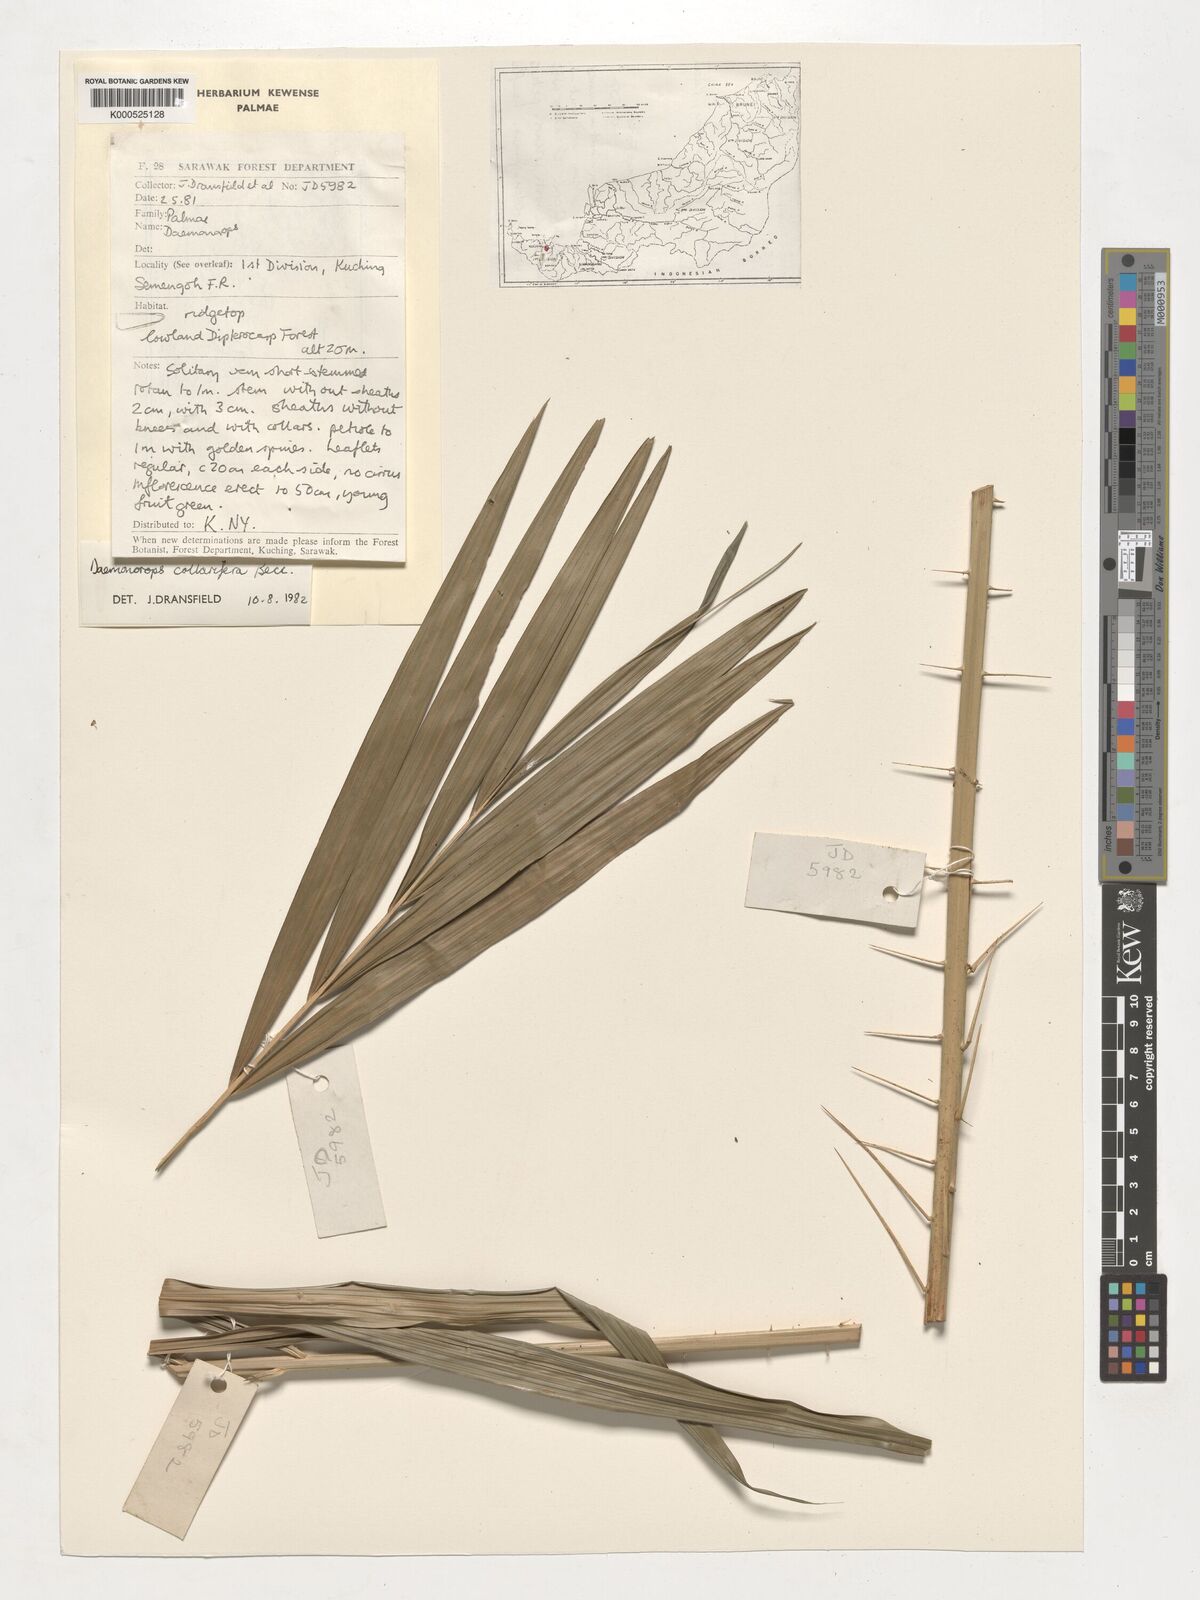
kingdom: Plantae
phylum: Tracheophyta
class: Liliopsida
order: Arecales
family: Arecaceae
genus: Calamus
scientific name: Calamus geniculatus
